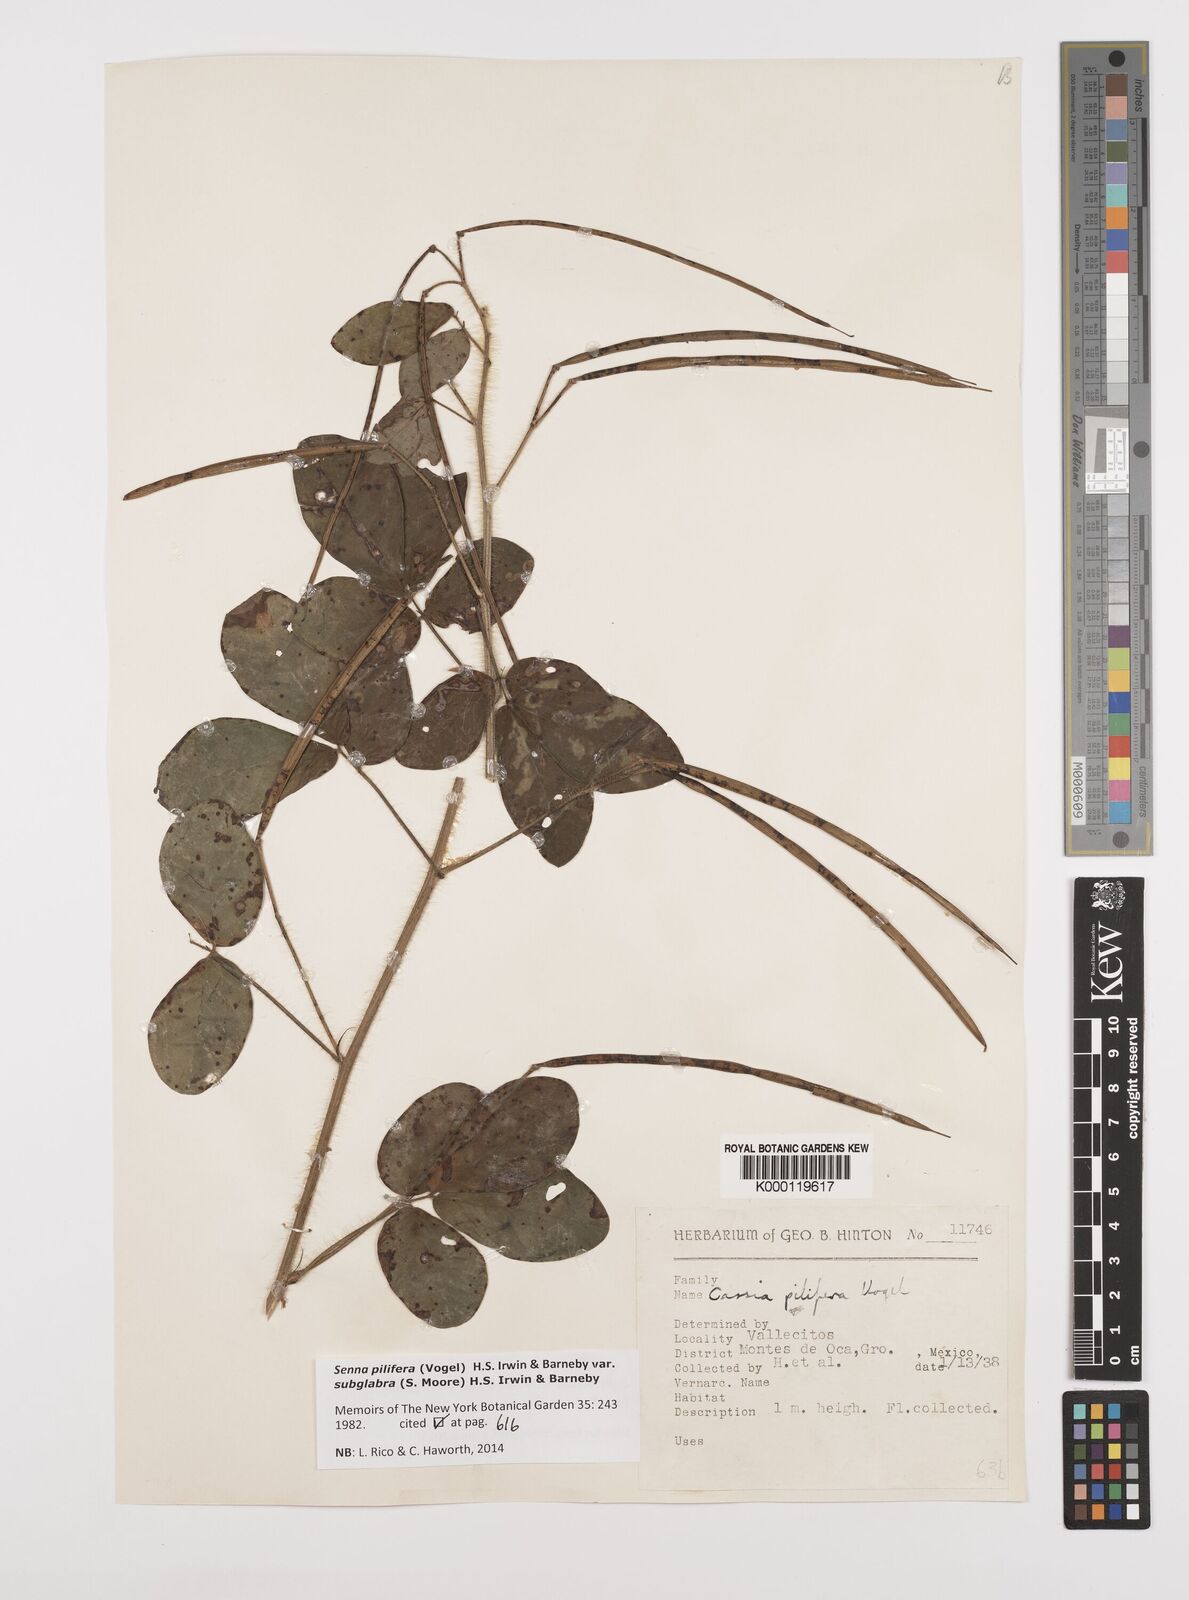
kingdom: Plantae
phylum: Tracheophyta
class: Magnoliopsida
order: Fabales
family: Fabaceae
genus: Senna
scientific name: Senna pilifera
